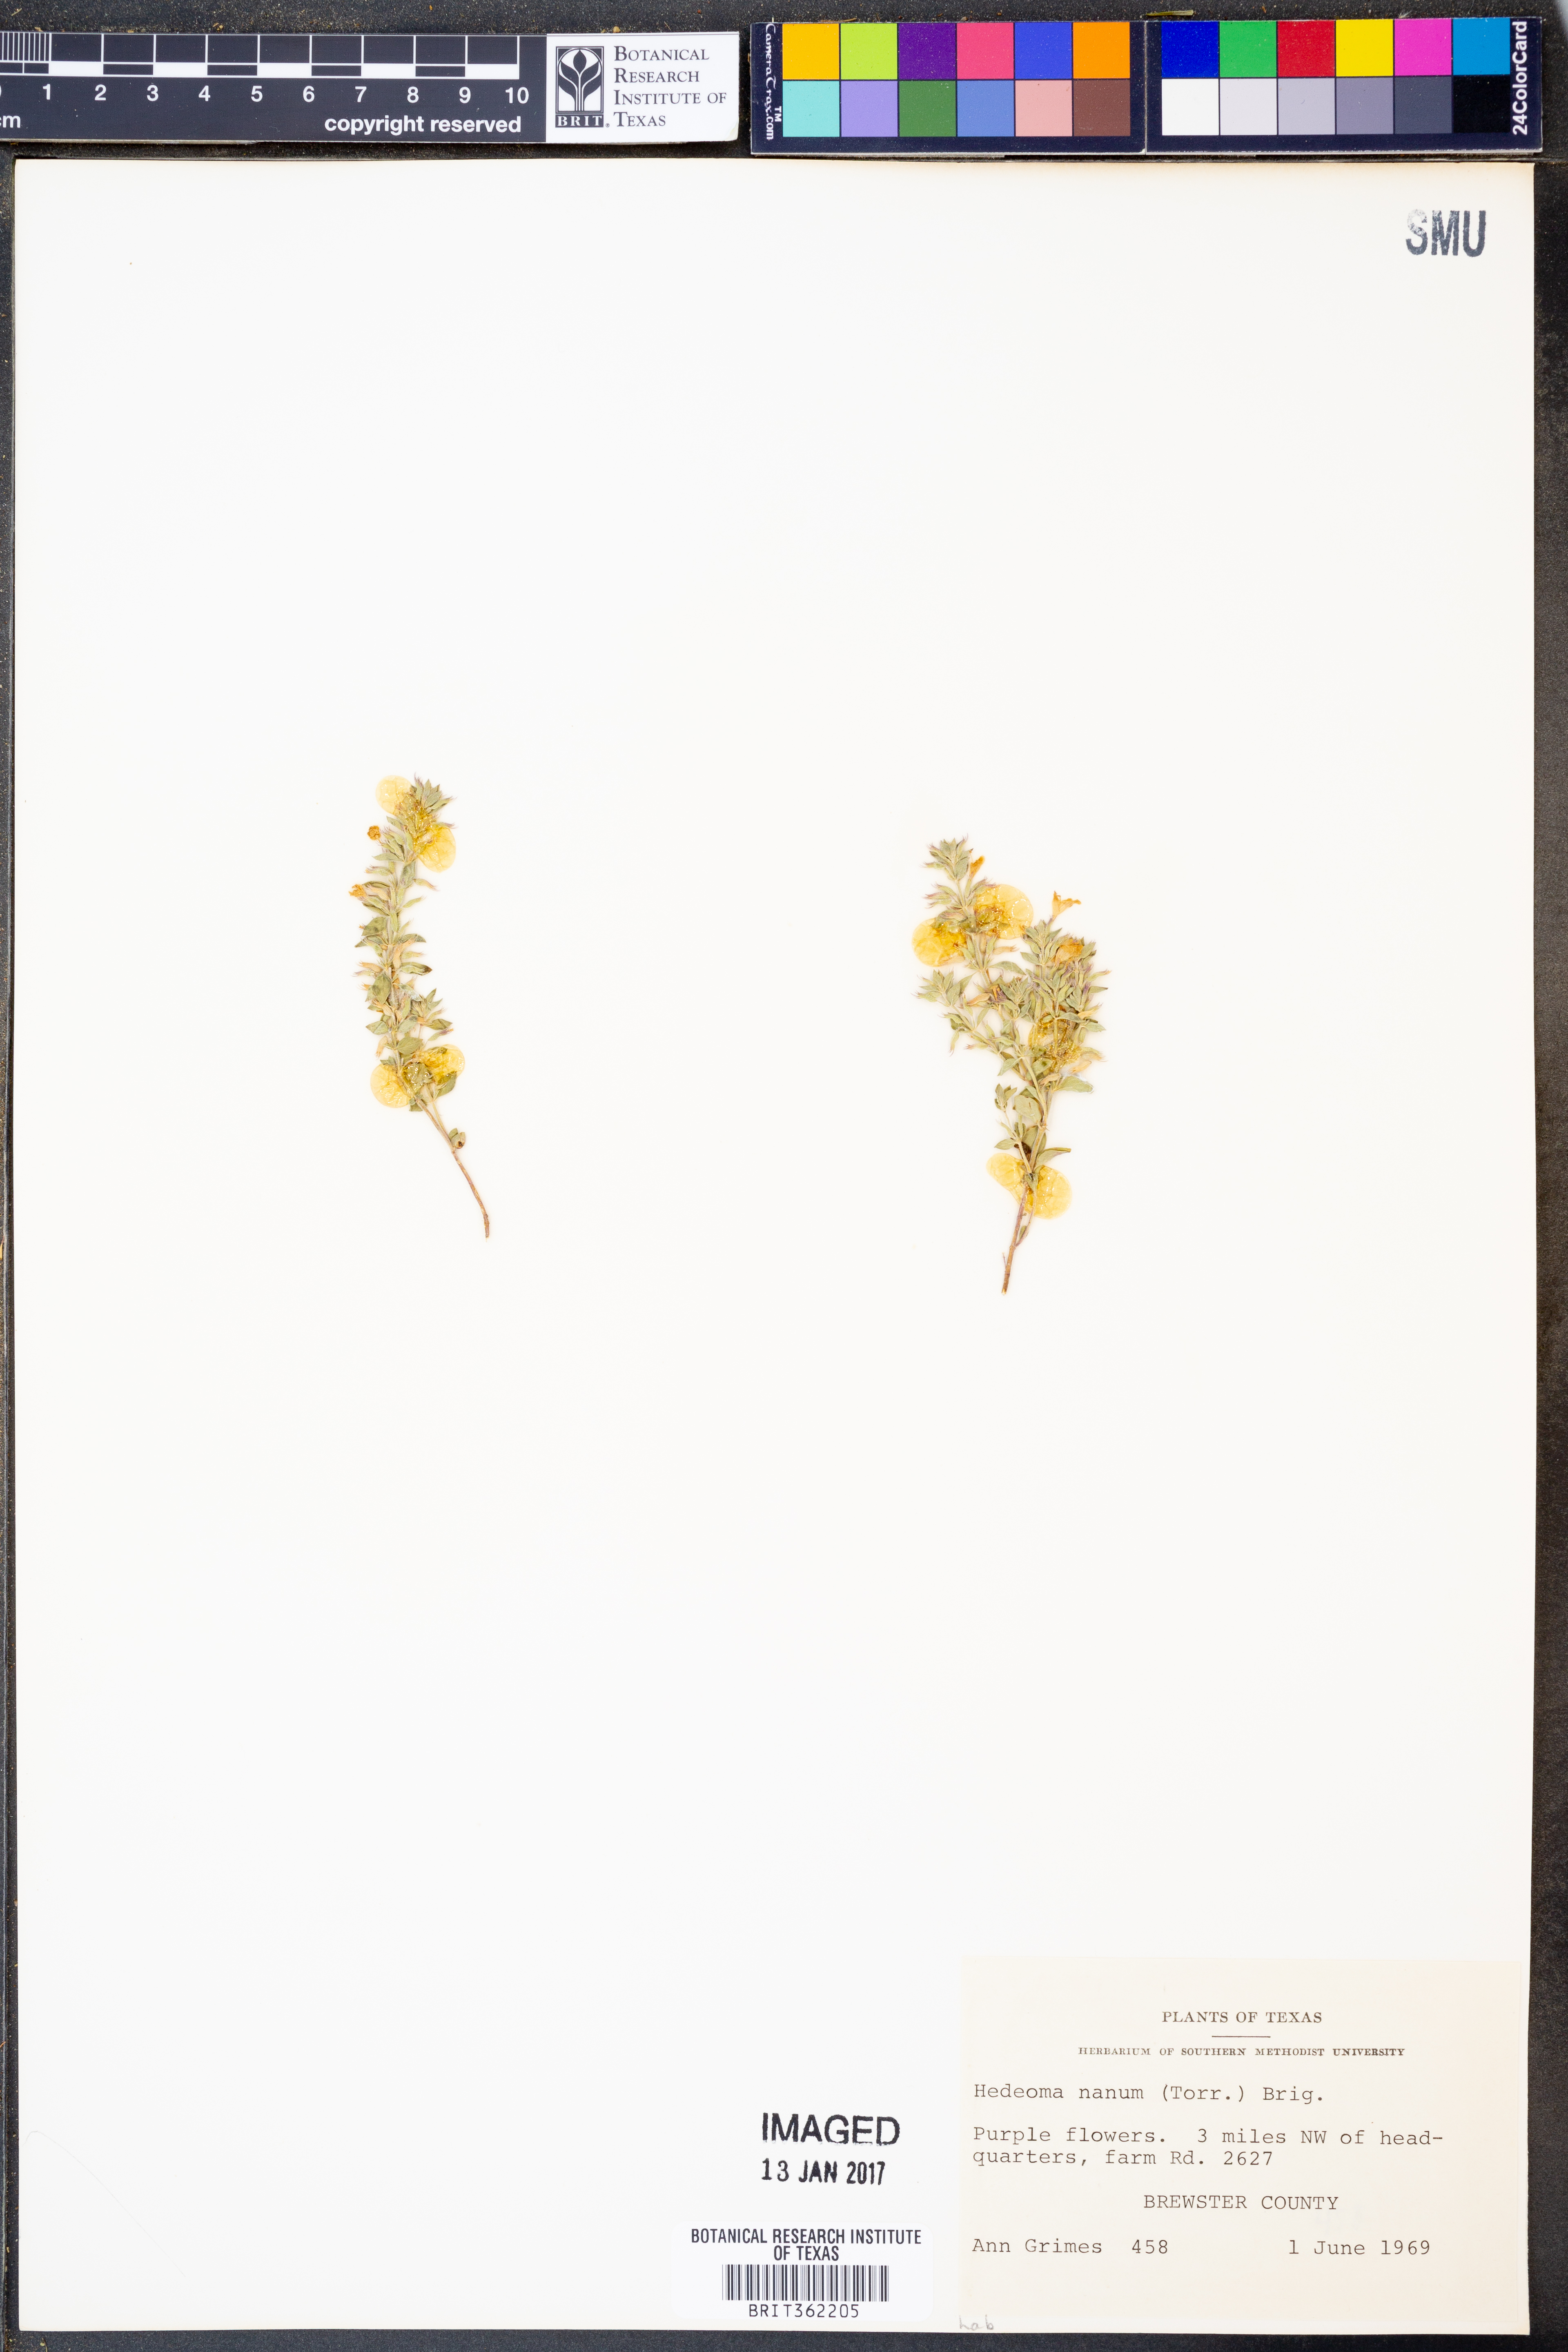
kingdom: Plantae
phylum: Tracheophyta
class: Magnoliopsida
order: Lamiales
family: Lamiaceae
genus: Hedeoma
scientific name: Hedeoma nana
